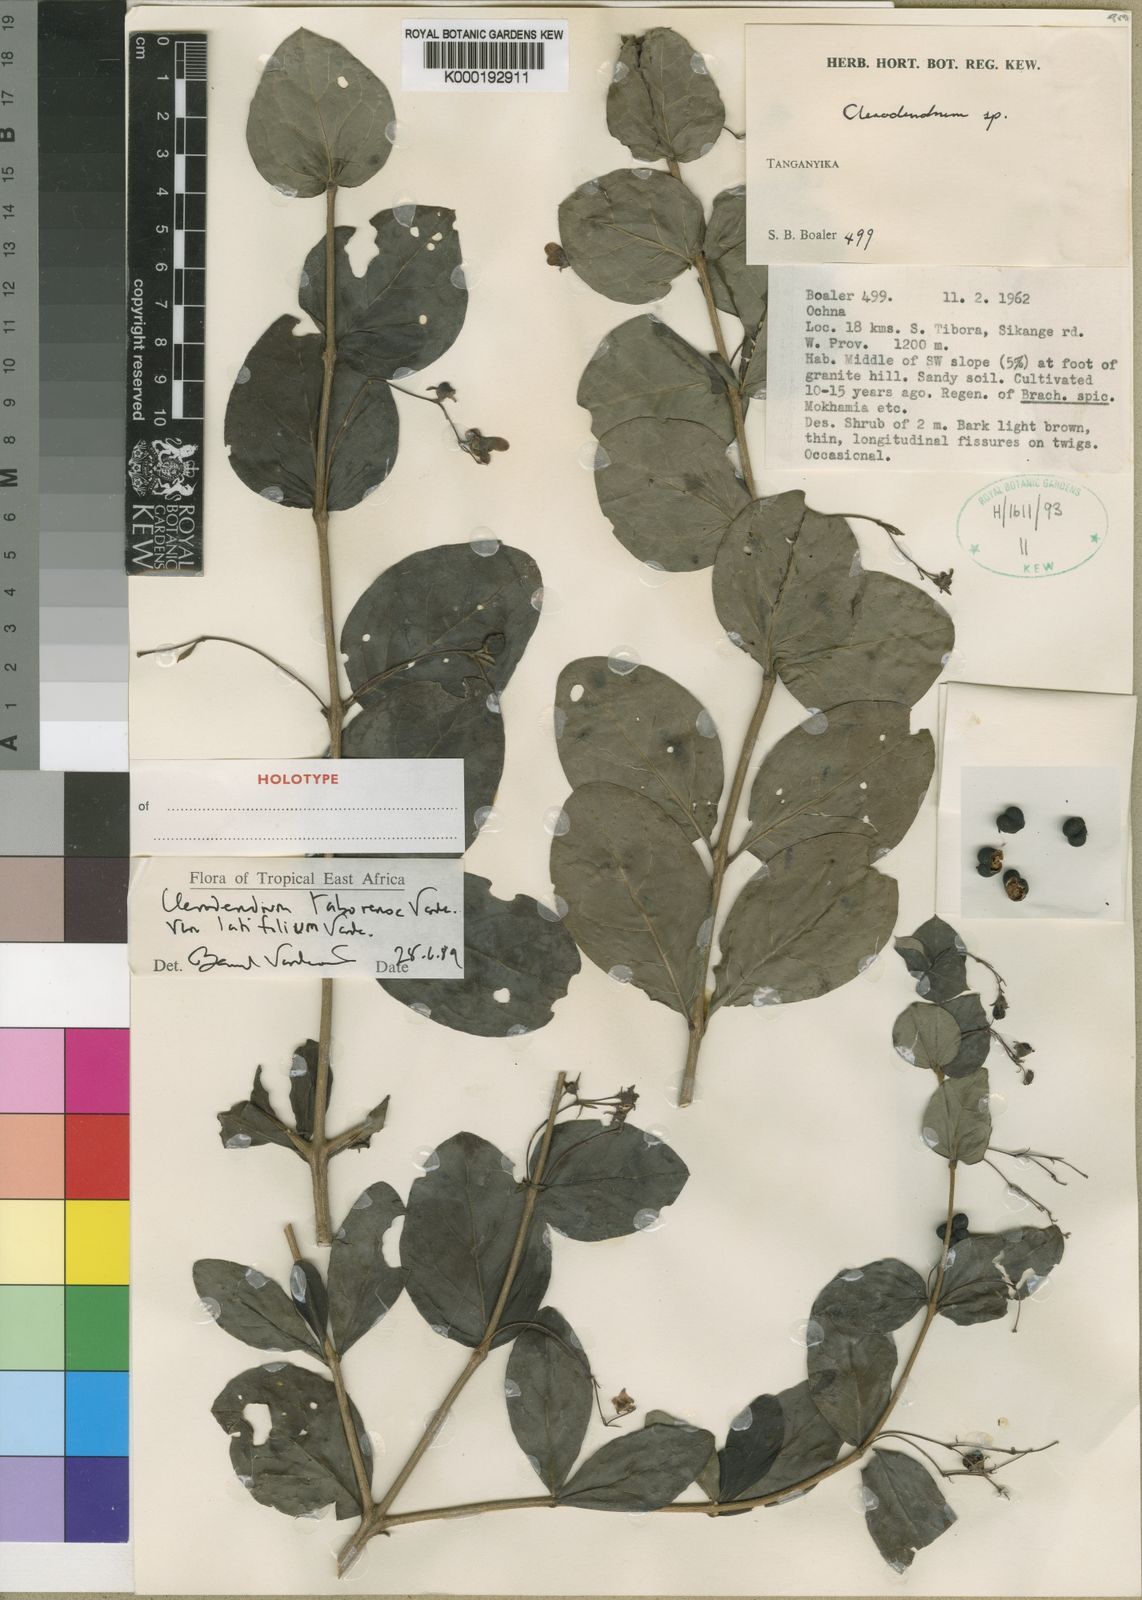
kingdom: Plantae
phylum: Tracheophyta
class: Magnoliopsida
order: Lamiales
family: Lamiaceae
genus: Rotheca
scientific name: Rotheca taborensis
